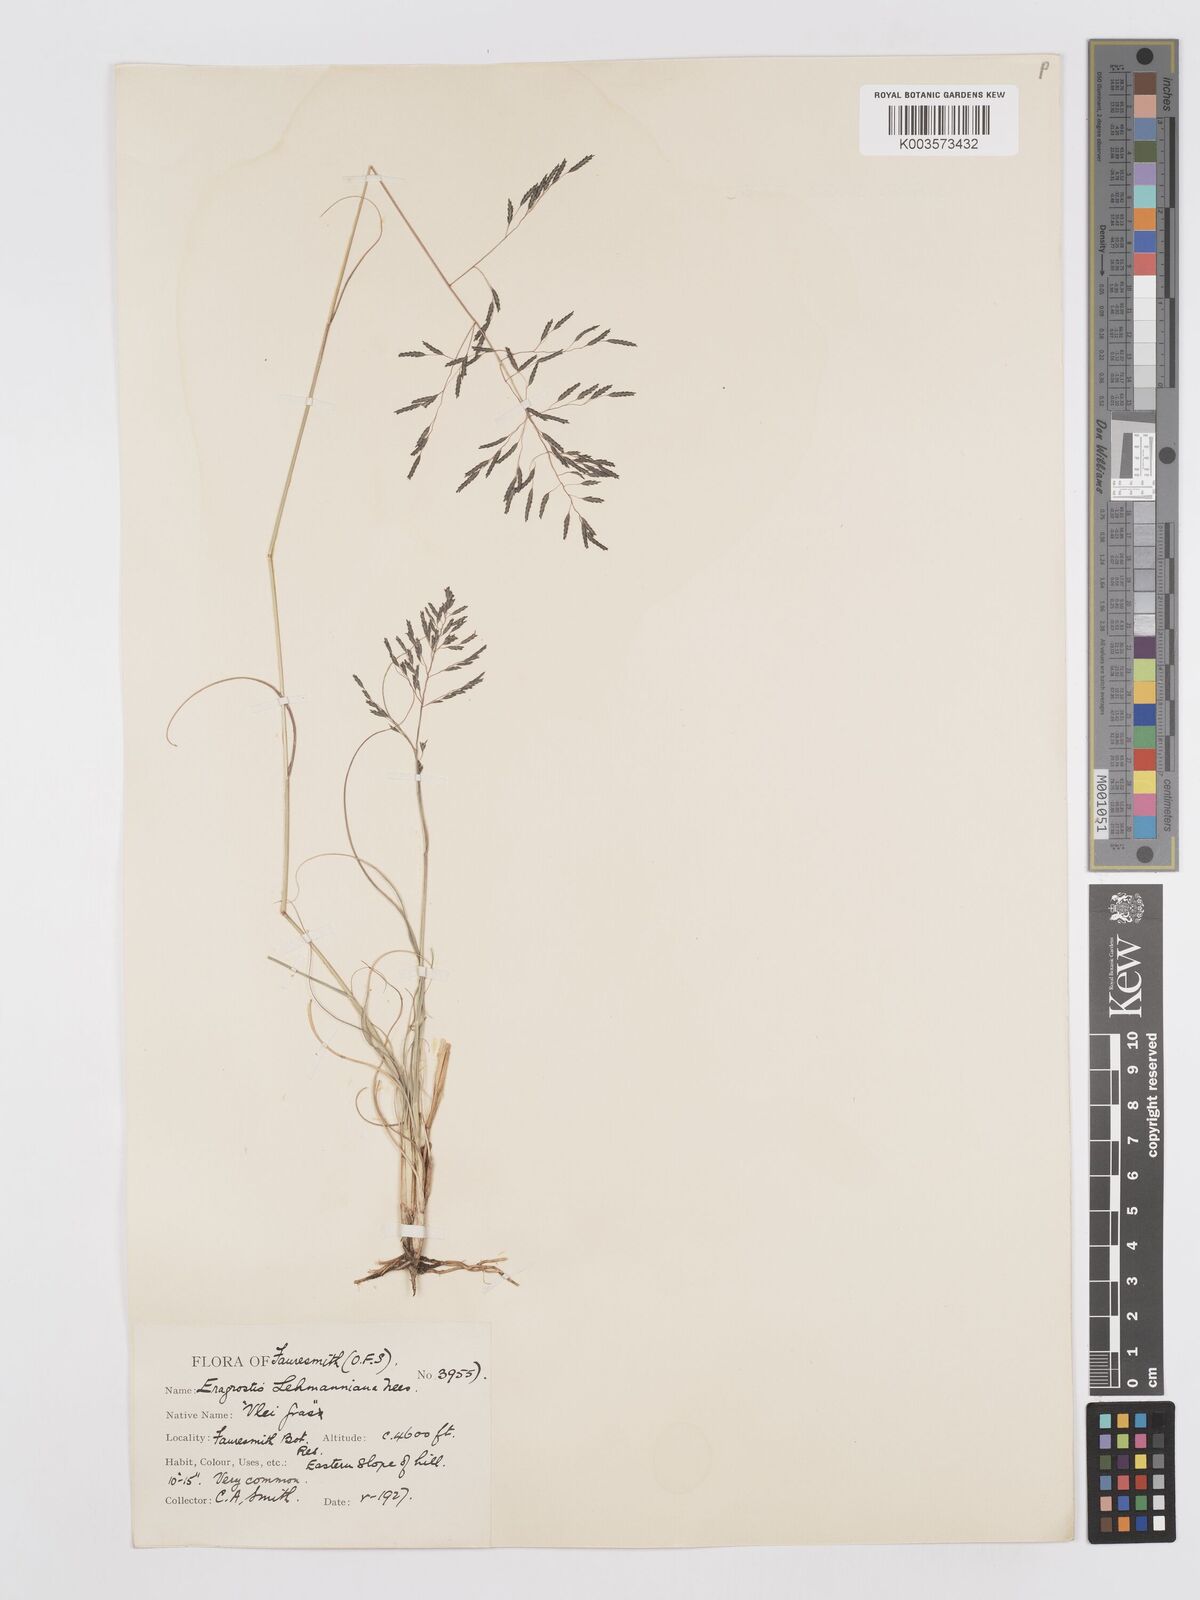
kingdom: Plantae
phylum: Tracheophyta
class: Liliopsida
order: Poales
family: Poaceae
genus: Eragrostis
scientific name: Eragrostis lehmanniana
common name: Lehmann lovegrass
